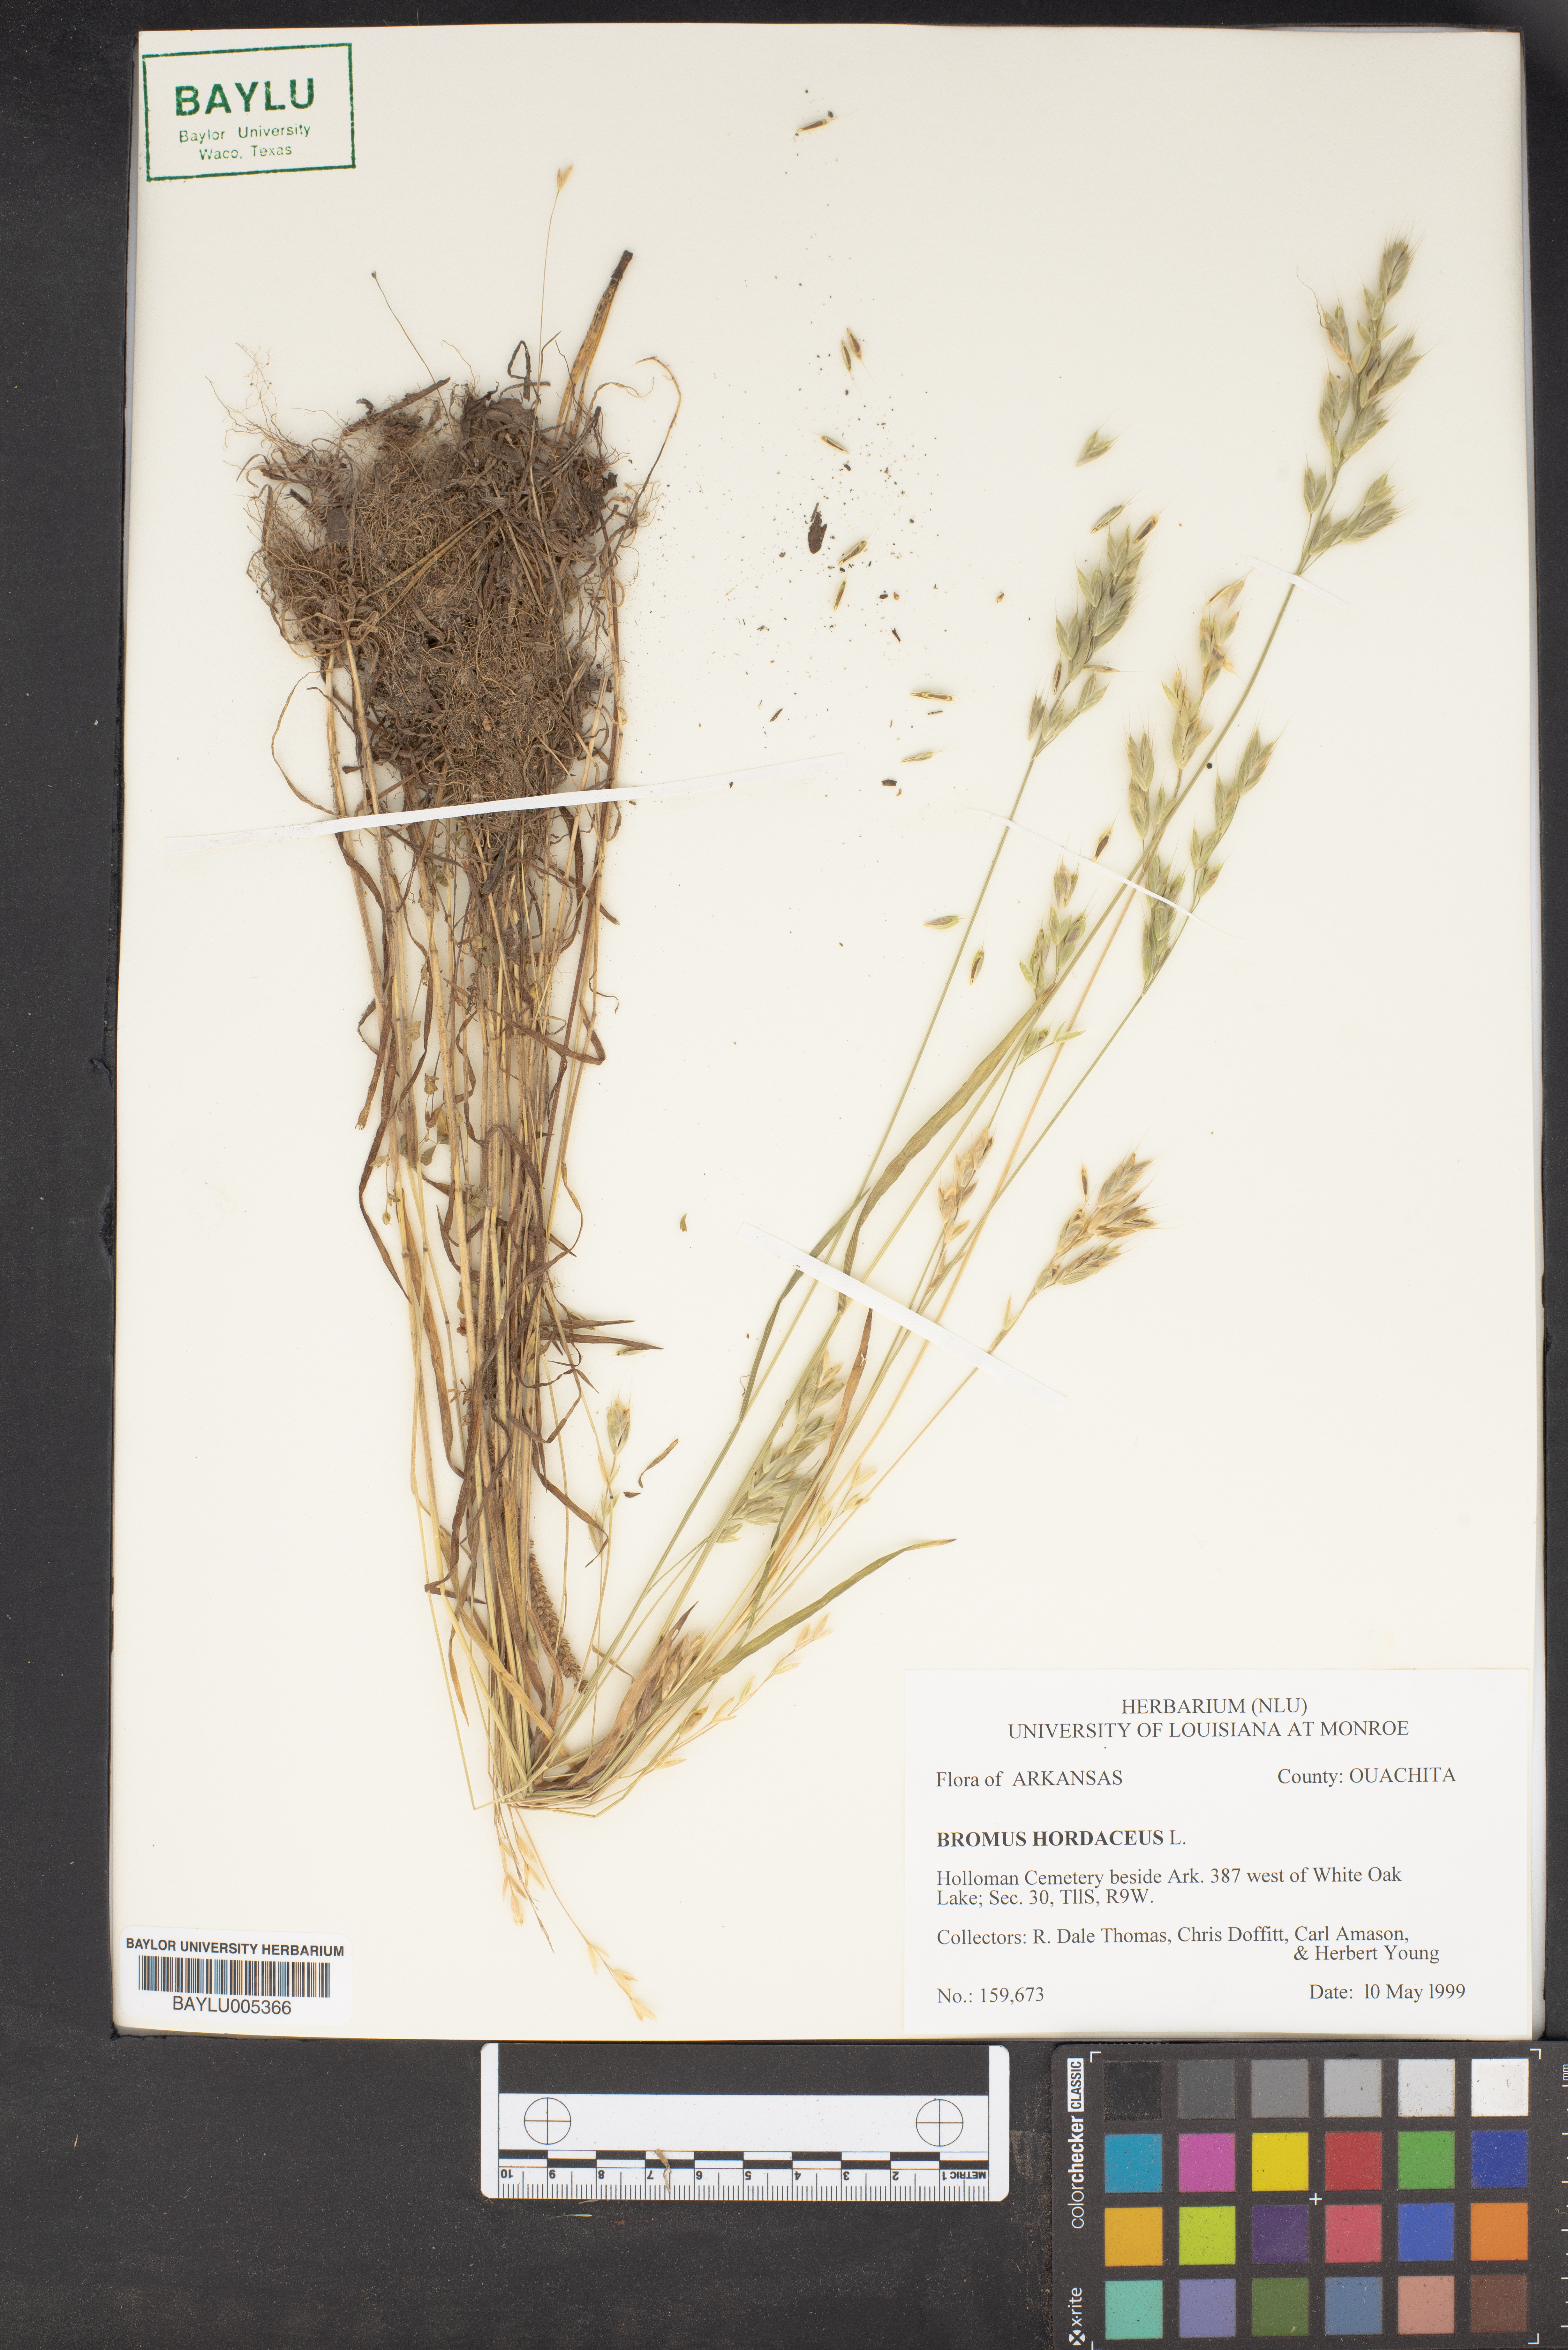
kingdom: Plantae
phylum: Tracheophyta
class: Liliopsida
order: Poales
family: Poaceae
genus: Bromus
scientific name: Bromus hordeaceus
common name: Soft brome
